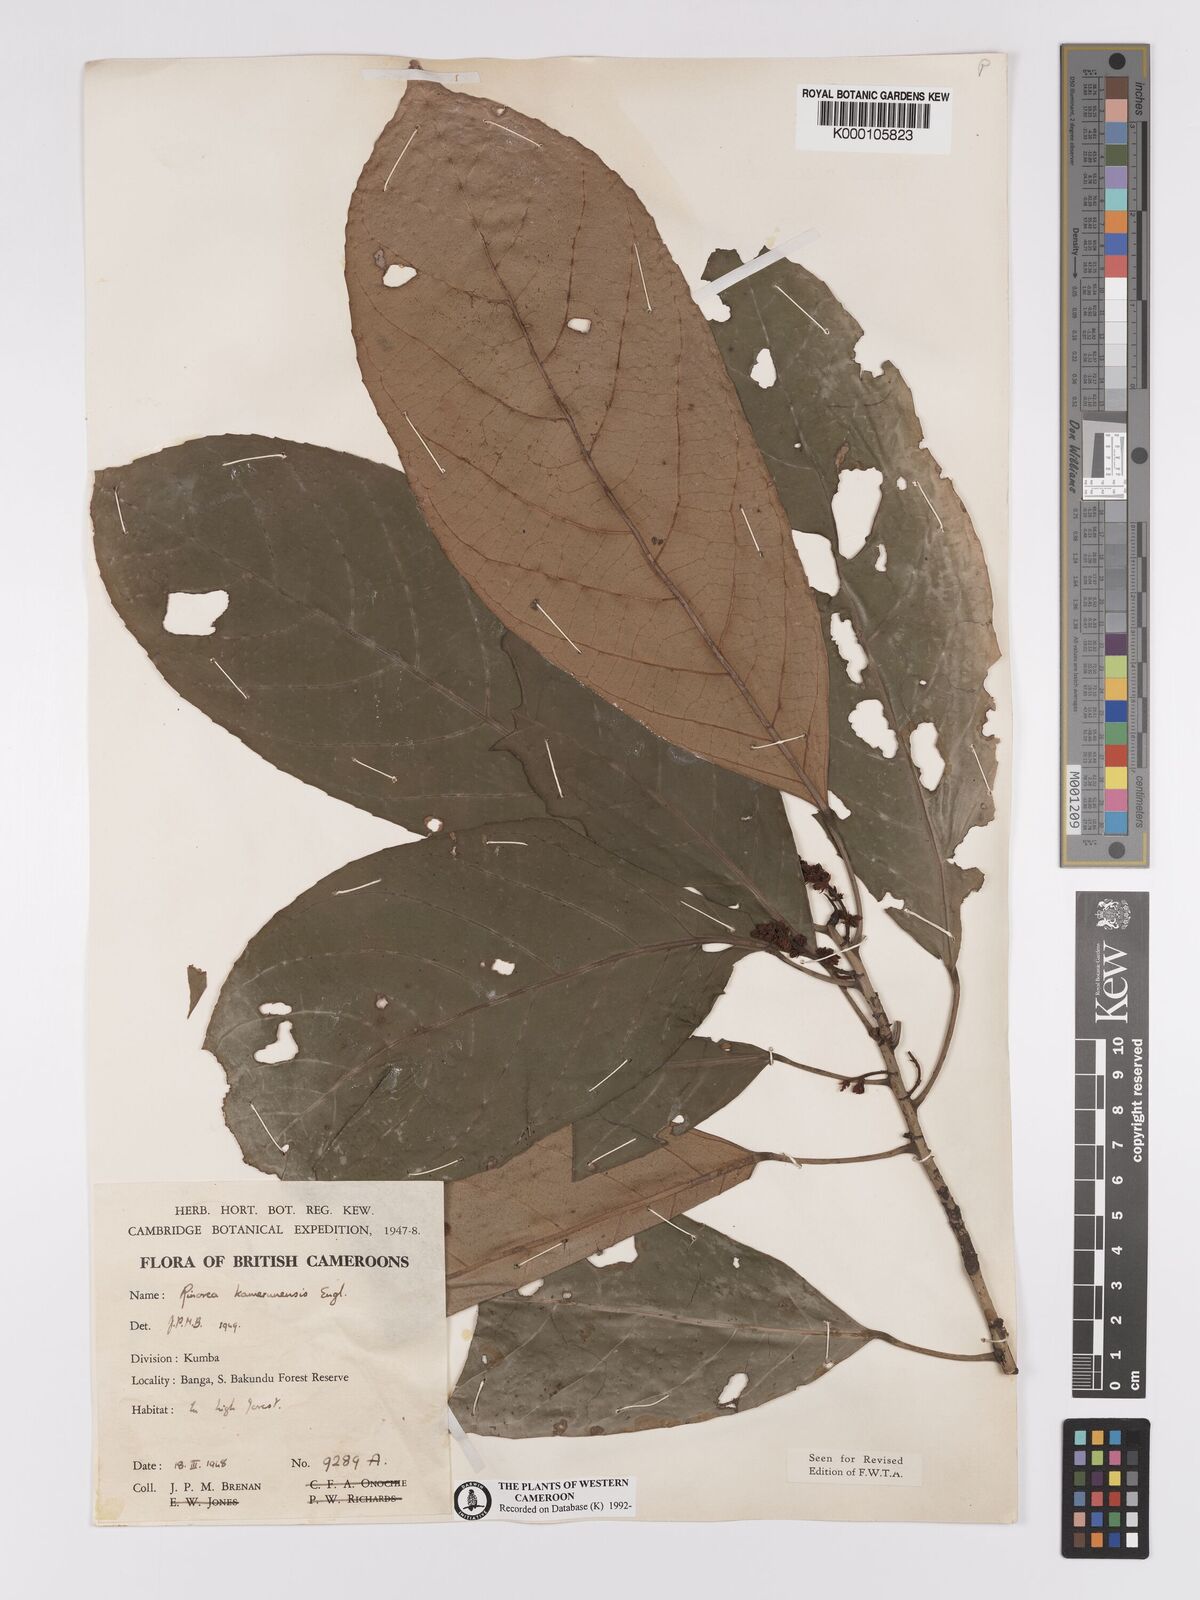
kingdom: Plantae
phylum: Tracheophyta
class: Magnoliopsida
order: Malpighiales
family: Violaceae
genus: Rinorea
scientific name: Rinorea kamerunensis
